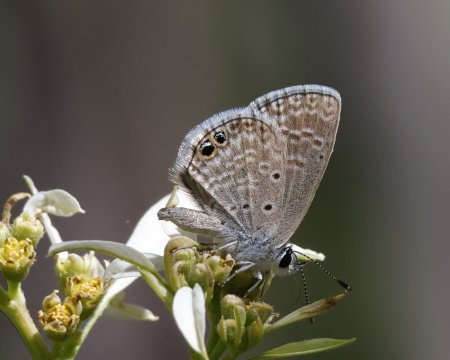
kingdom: Animalia
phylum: Arthropoda
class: Insecta
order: Lepidoptera
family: Lycaenidae
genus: Hemiargus
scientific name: Hemiargus ceraunus
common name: Ceraunus Blue
